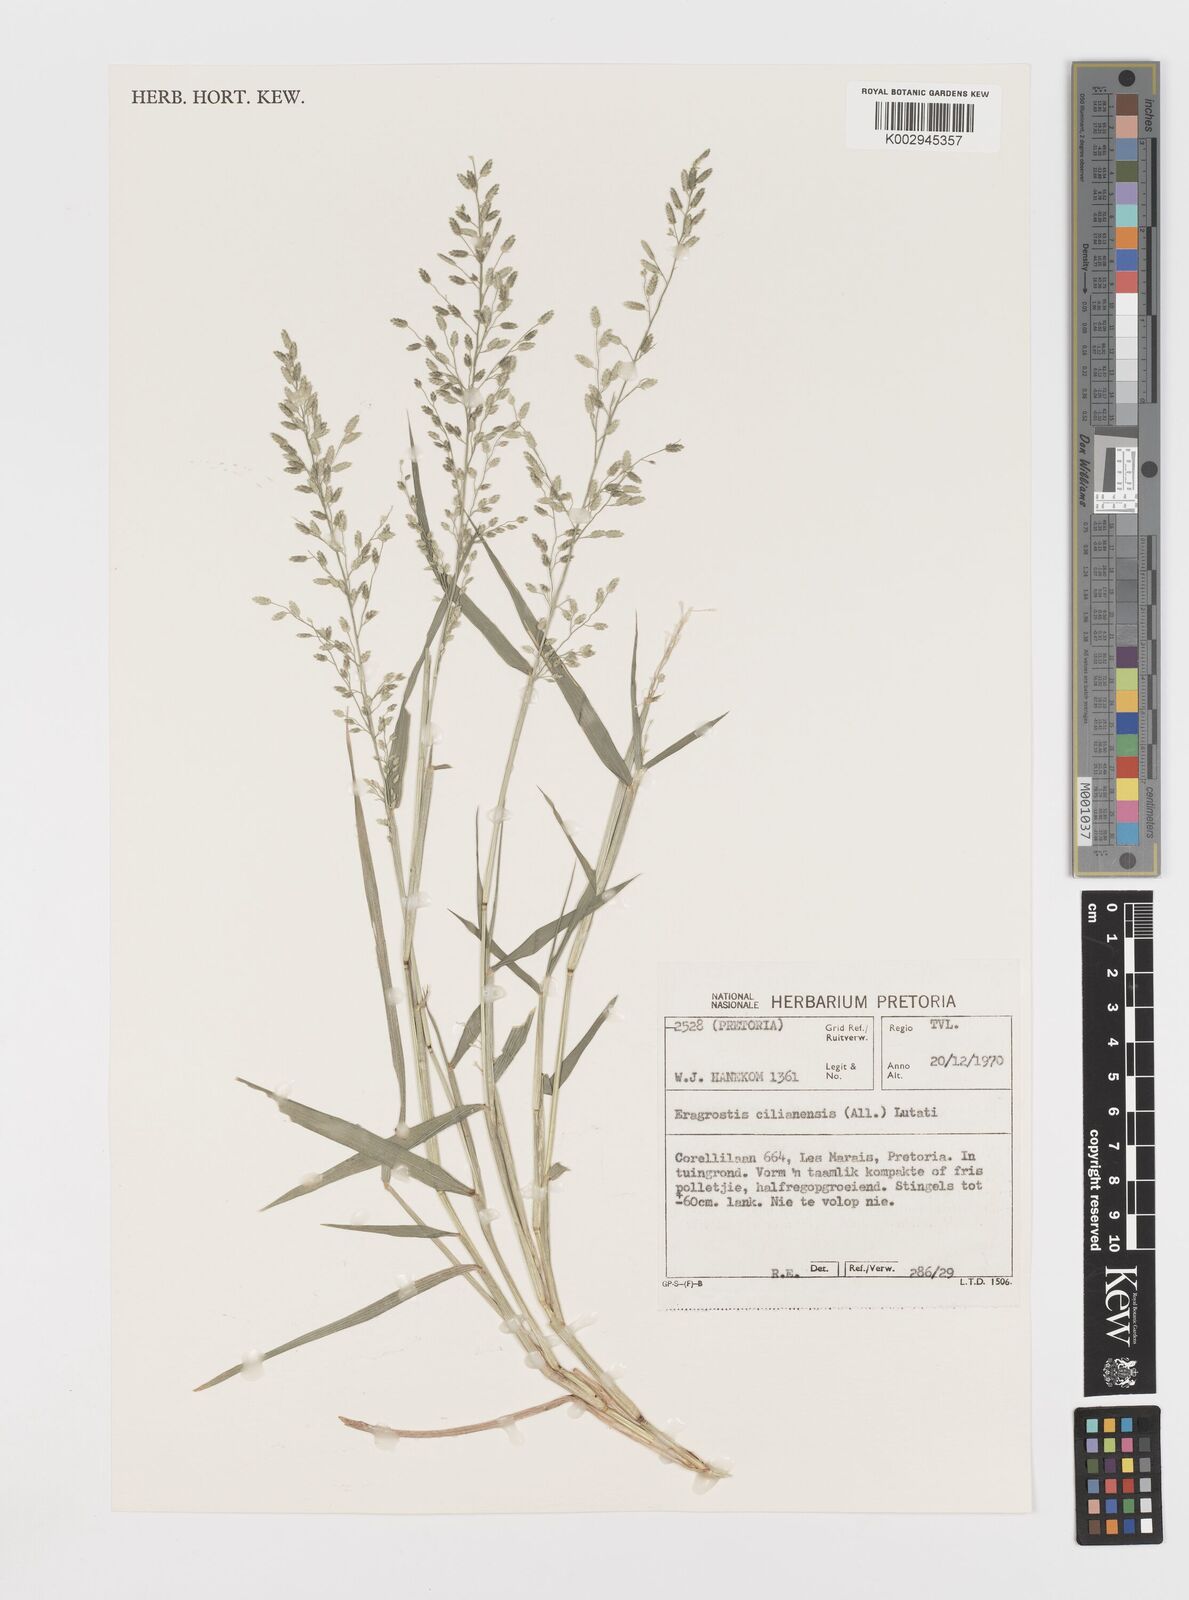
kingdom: Plantae
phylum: Tracheophyta
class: Liliopsida
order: Poales
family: Poaceae
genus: Eragrostis
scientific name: Eragrostis cilianensis
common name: Stinkgrass
